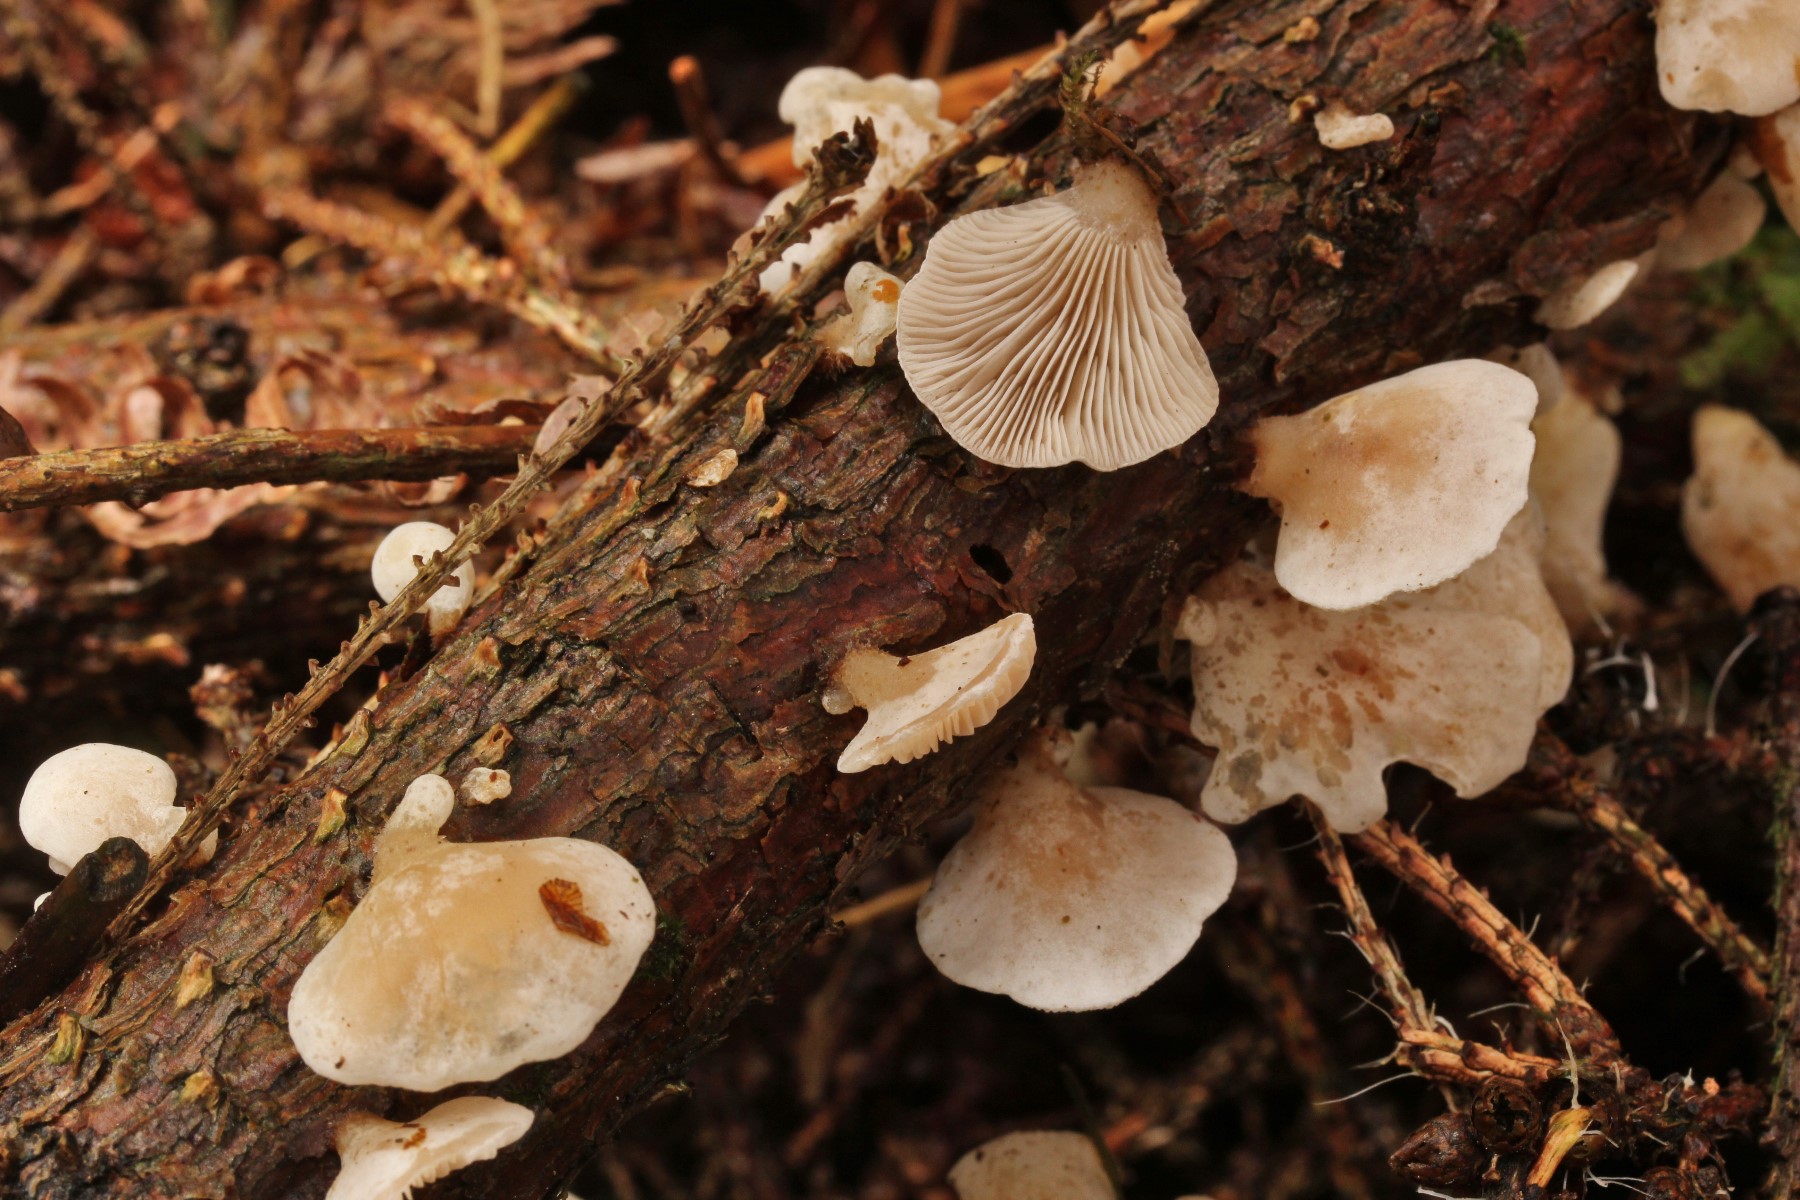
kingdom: Fungi
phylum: Basidiomycota
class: Agaricomycetes
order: Agaricales
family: Mycenaceae
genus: Panellus
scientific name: Panellus mitis
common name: mild epaulethat
